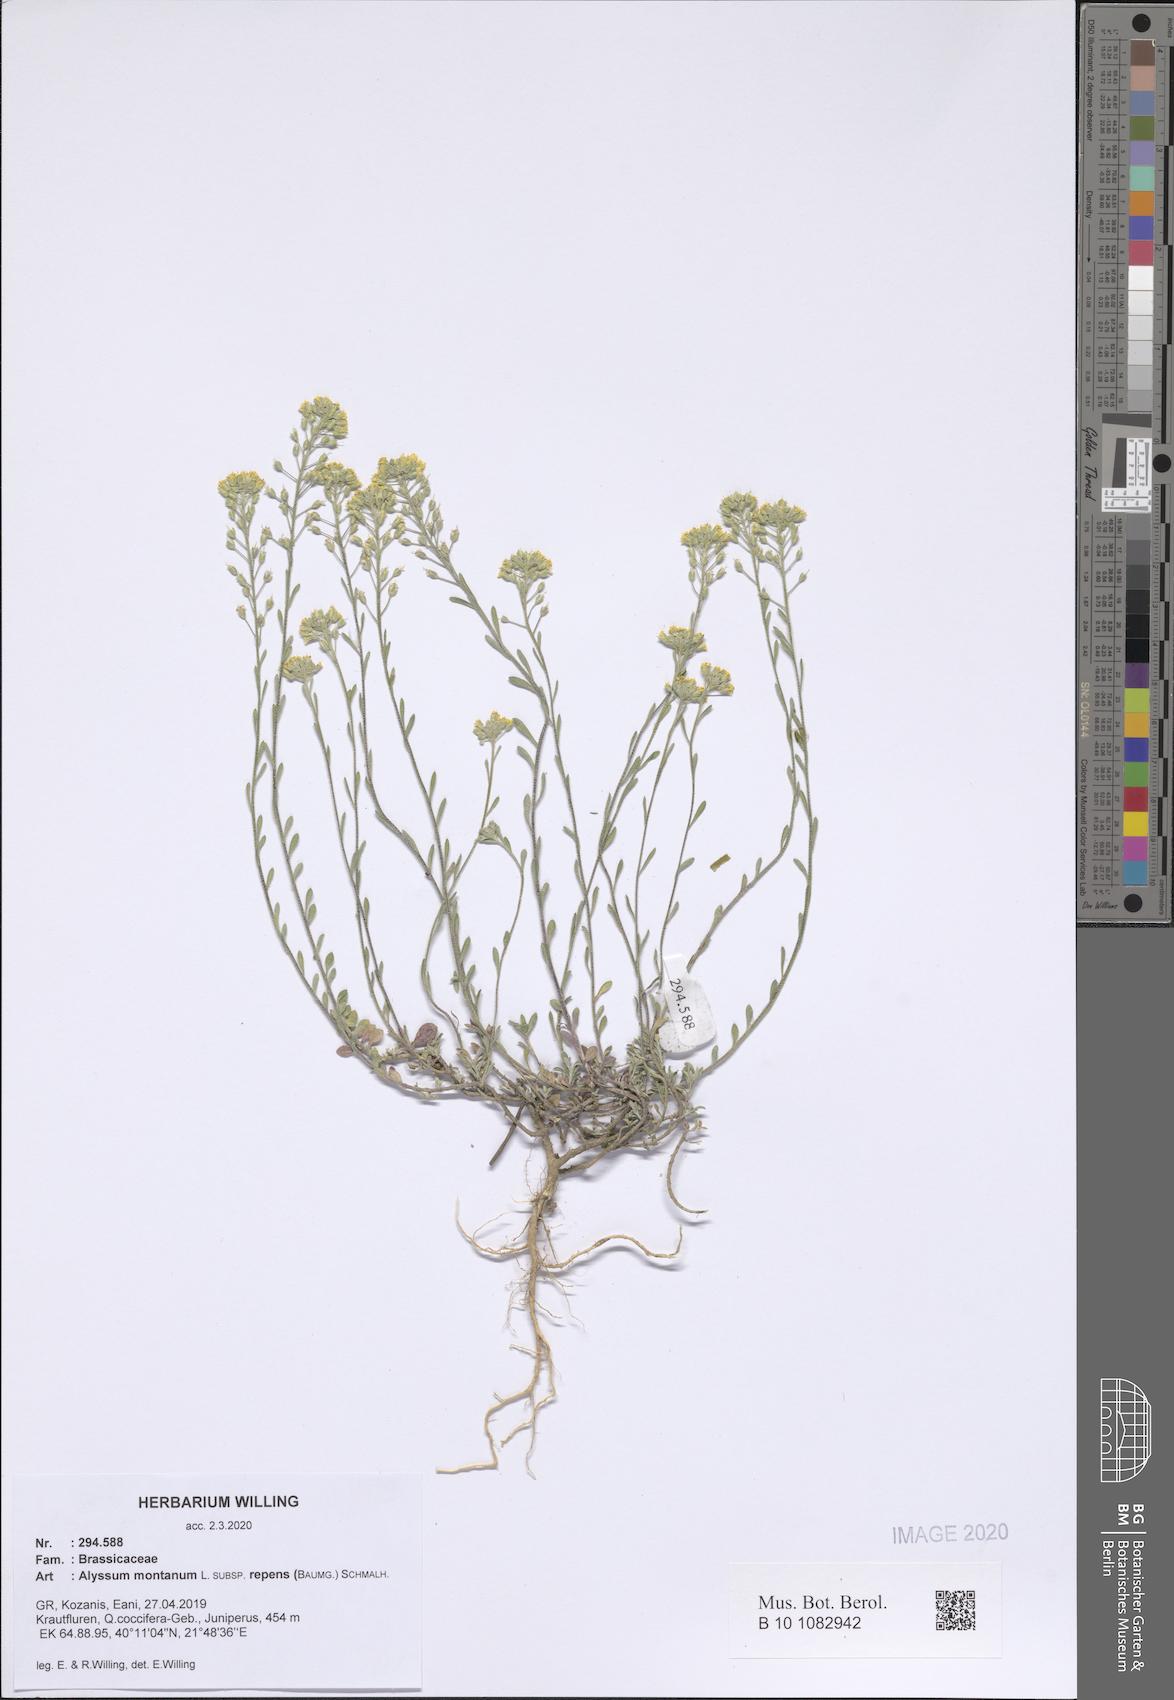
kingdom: Plantae
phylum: Tracheophyta
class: Magnoliopsida
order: Brassicales
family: Brassicaceae
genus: Alyssum
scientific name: Alyssum trichostachyum
